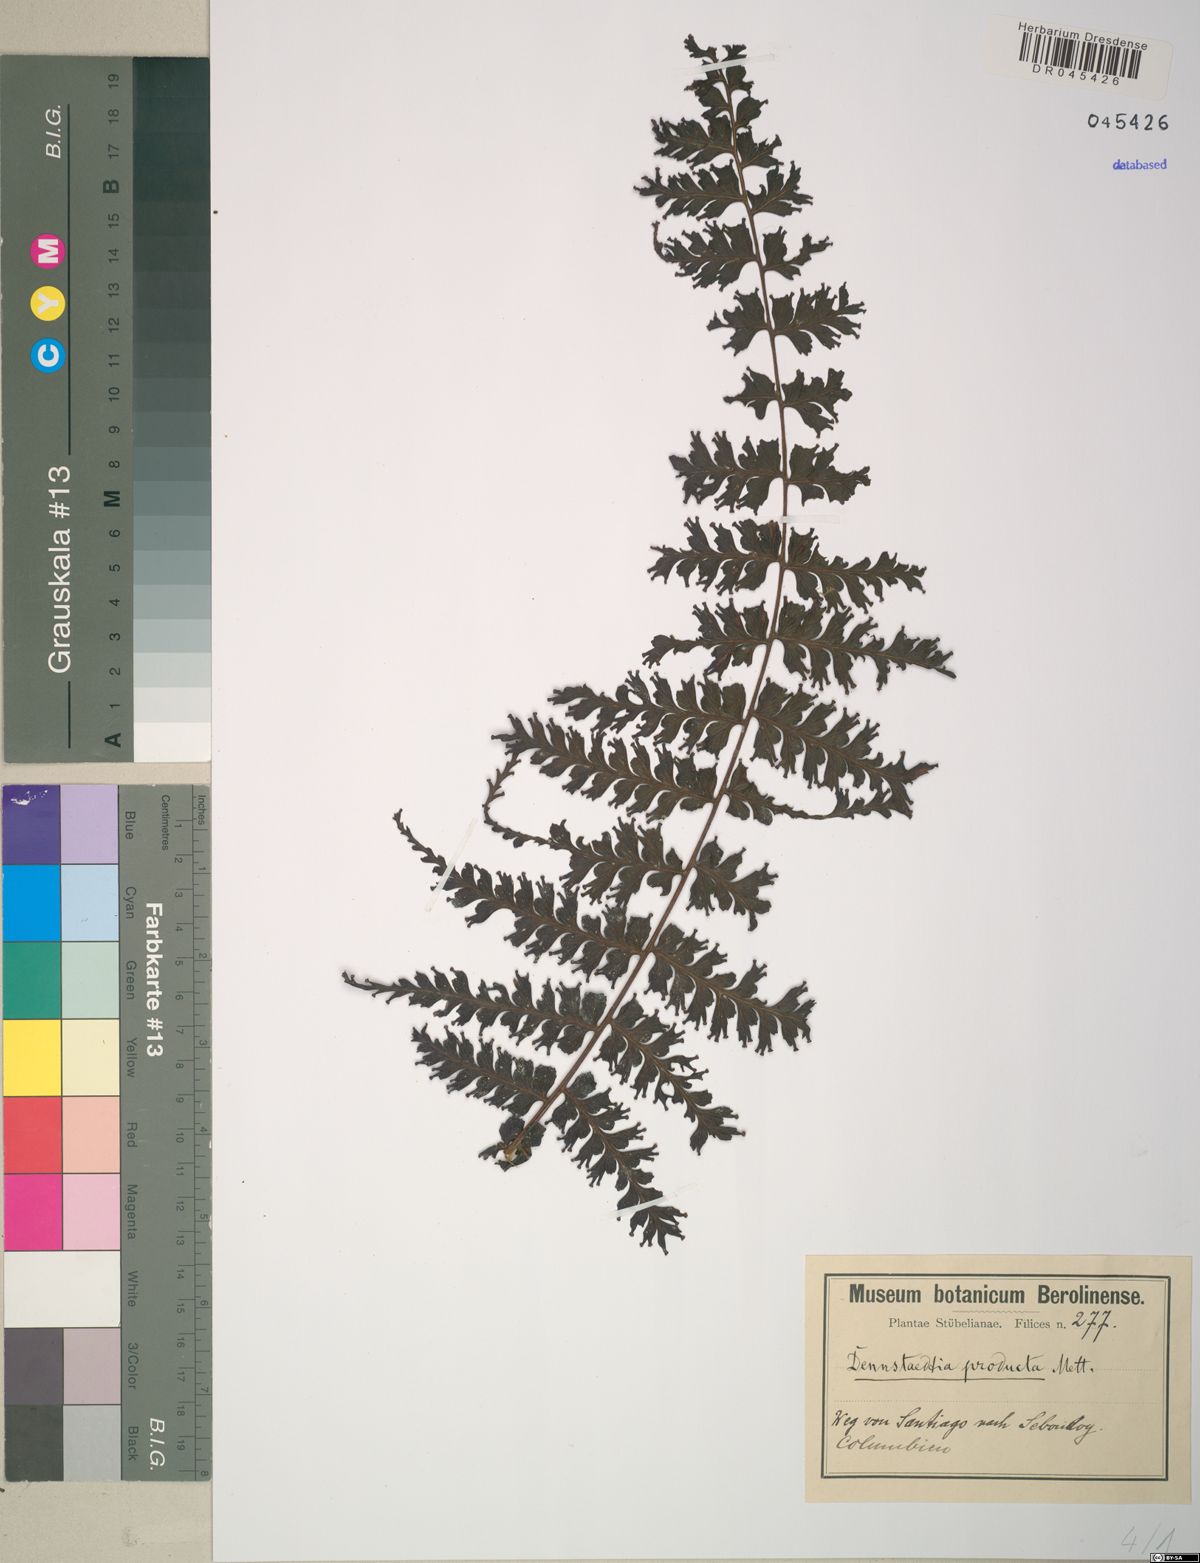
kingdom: Plantae
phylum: Tracheophyta
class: Polypodiopsida
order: Polypodiales
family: Dennstaedtiaceae
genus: Dennstaedtia
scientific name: Dennstaedtia producta
